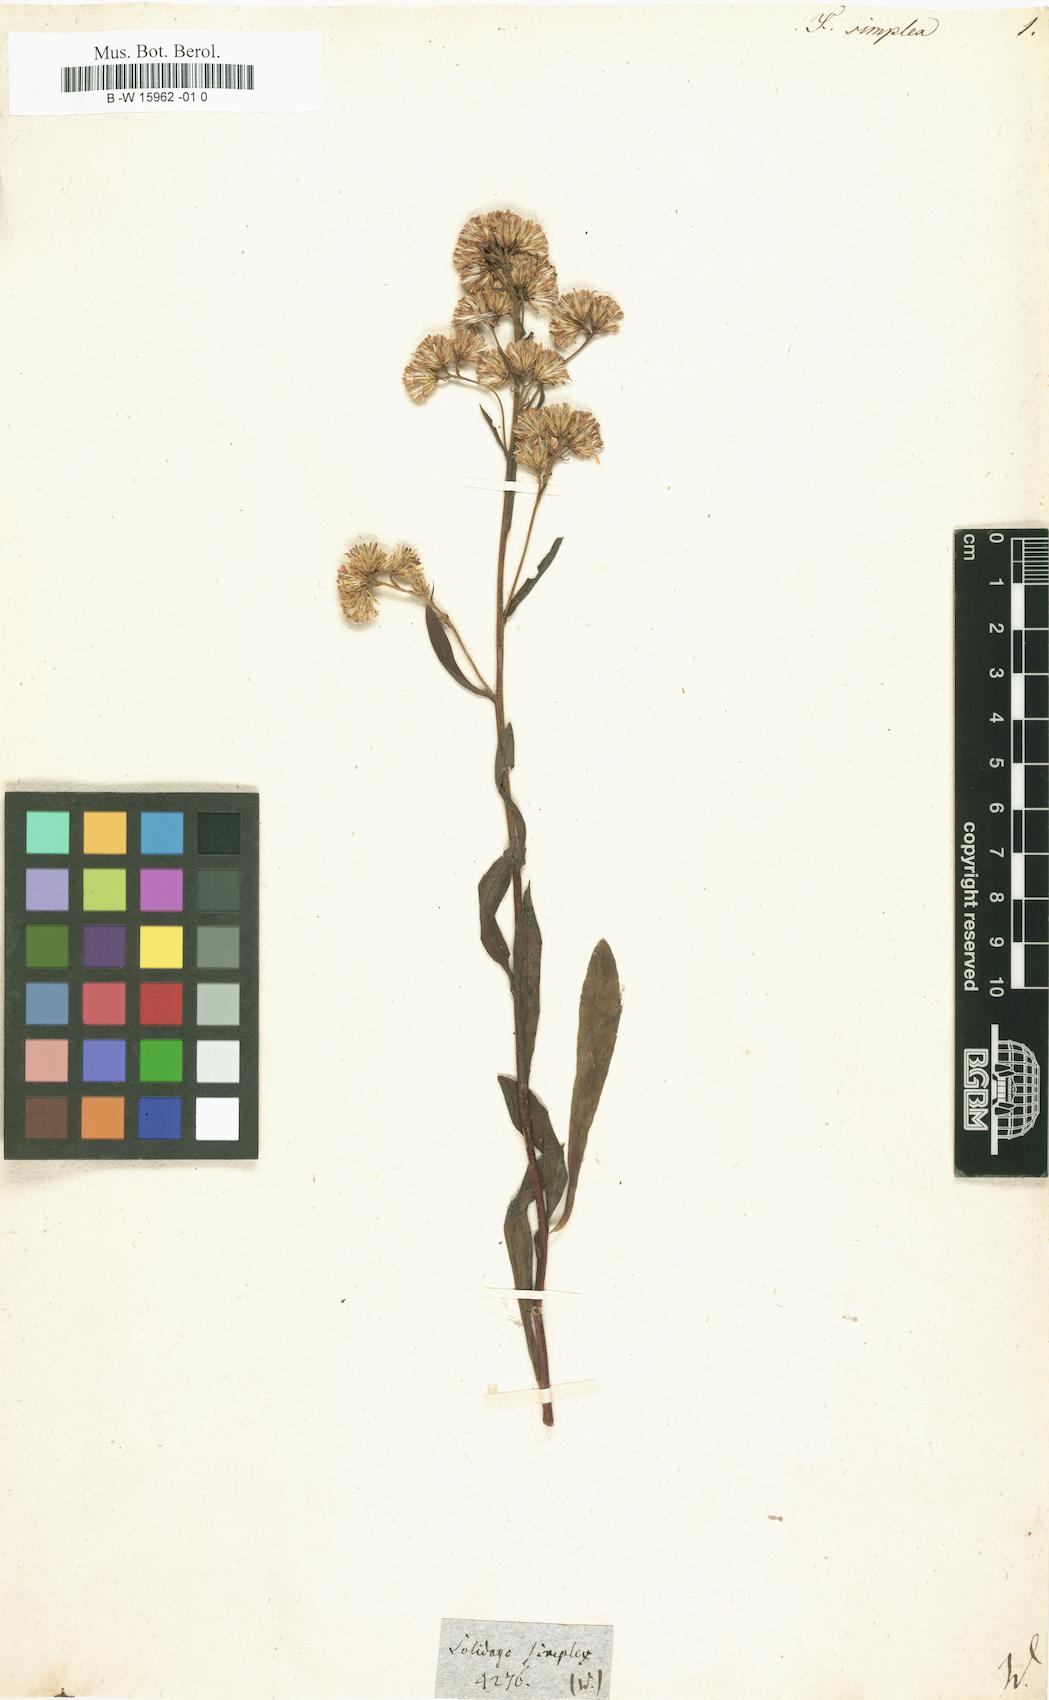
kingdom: Plantae
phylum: Tracheophyta
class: Magnoliopsida
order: Asterales
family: Asteraceae
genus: Solidago
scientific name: Solidago simplex
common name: Sticky goldenrod
